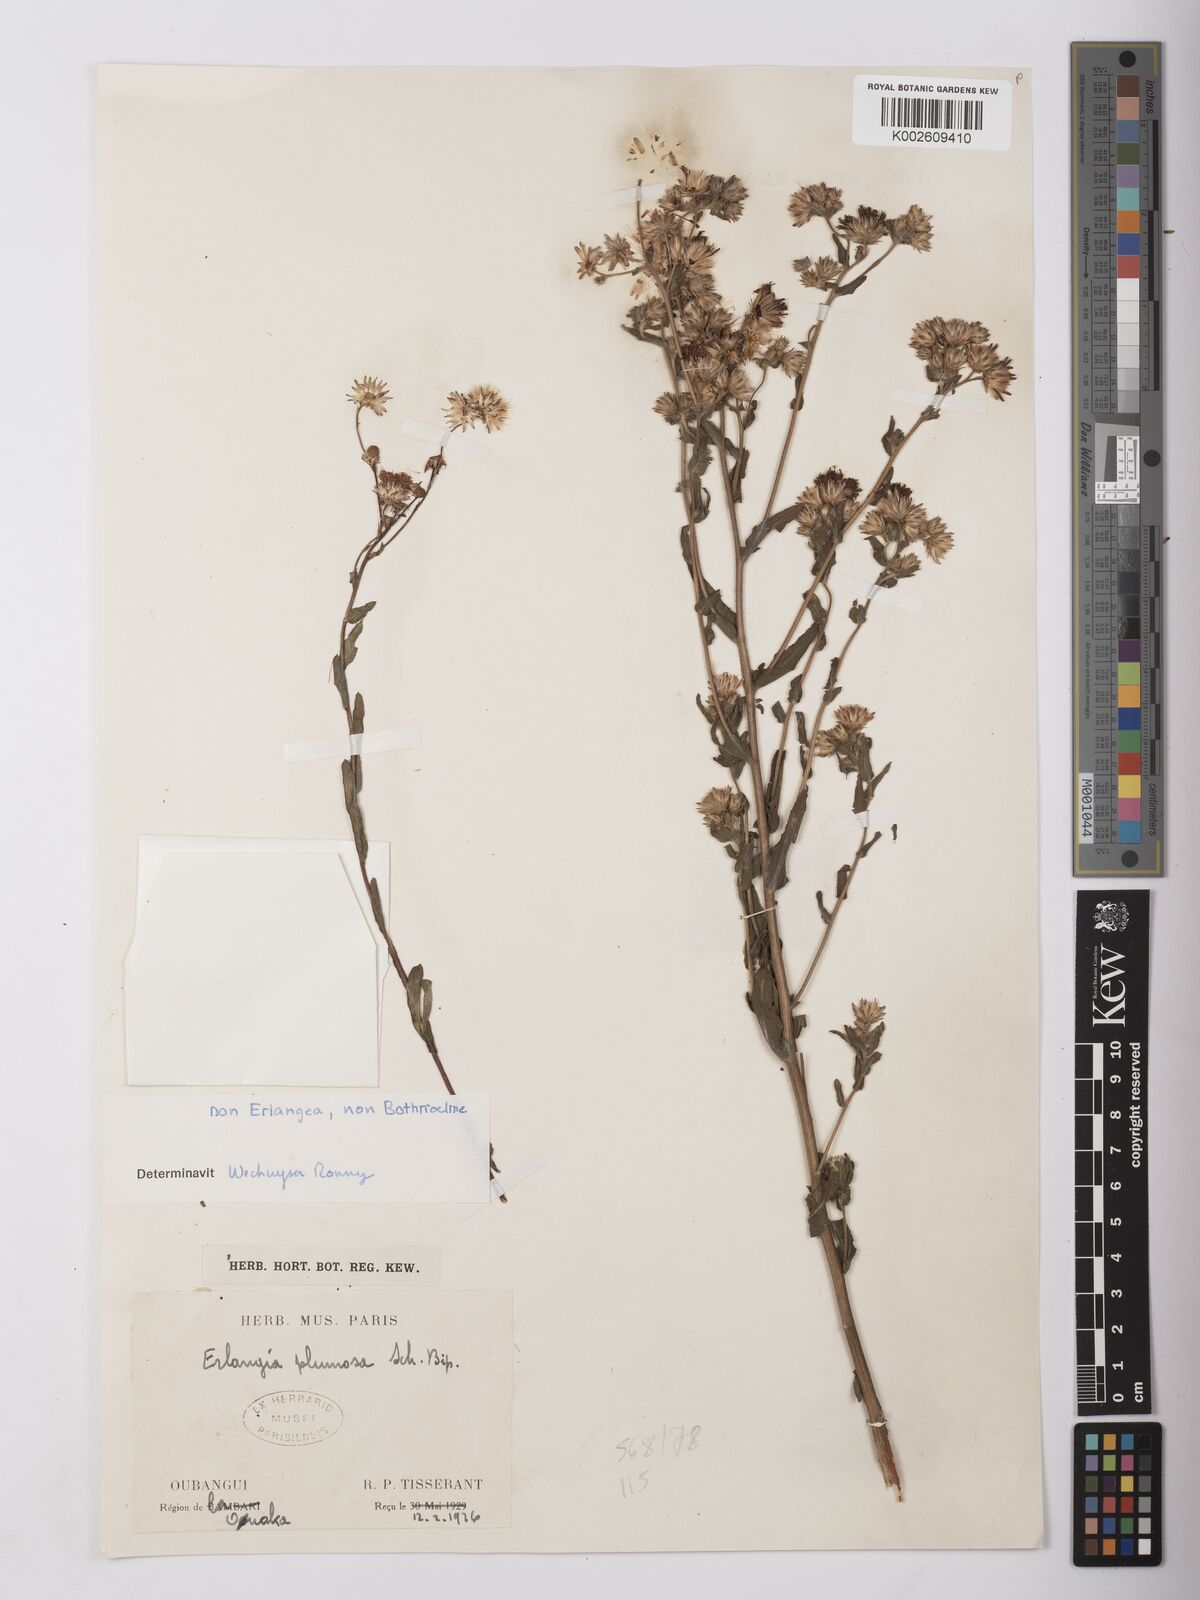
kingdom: Plantae
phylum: Tracheophyta
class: Magnoliopsida
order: Asterales
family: Asteraceae
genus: Vernonia
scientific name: Vernonia
